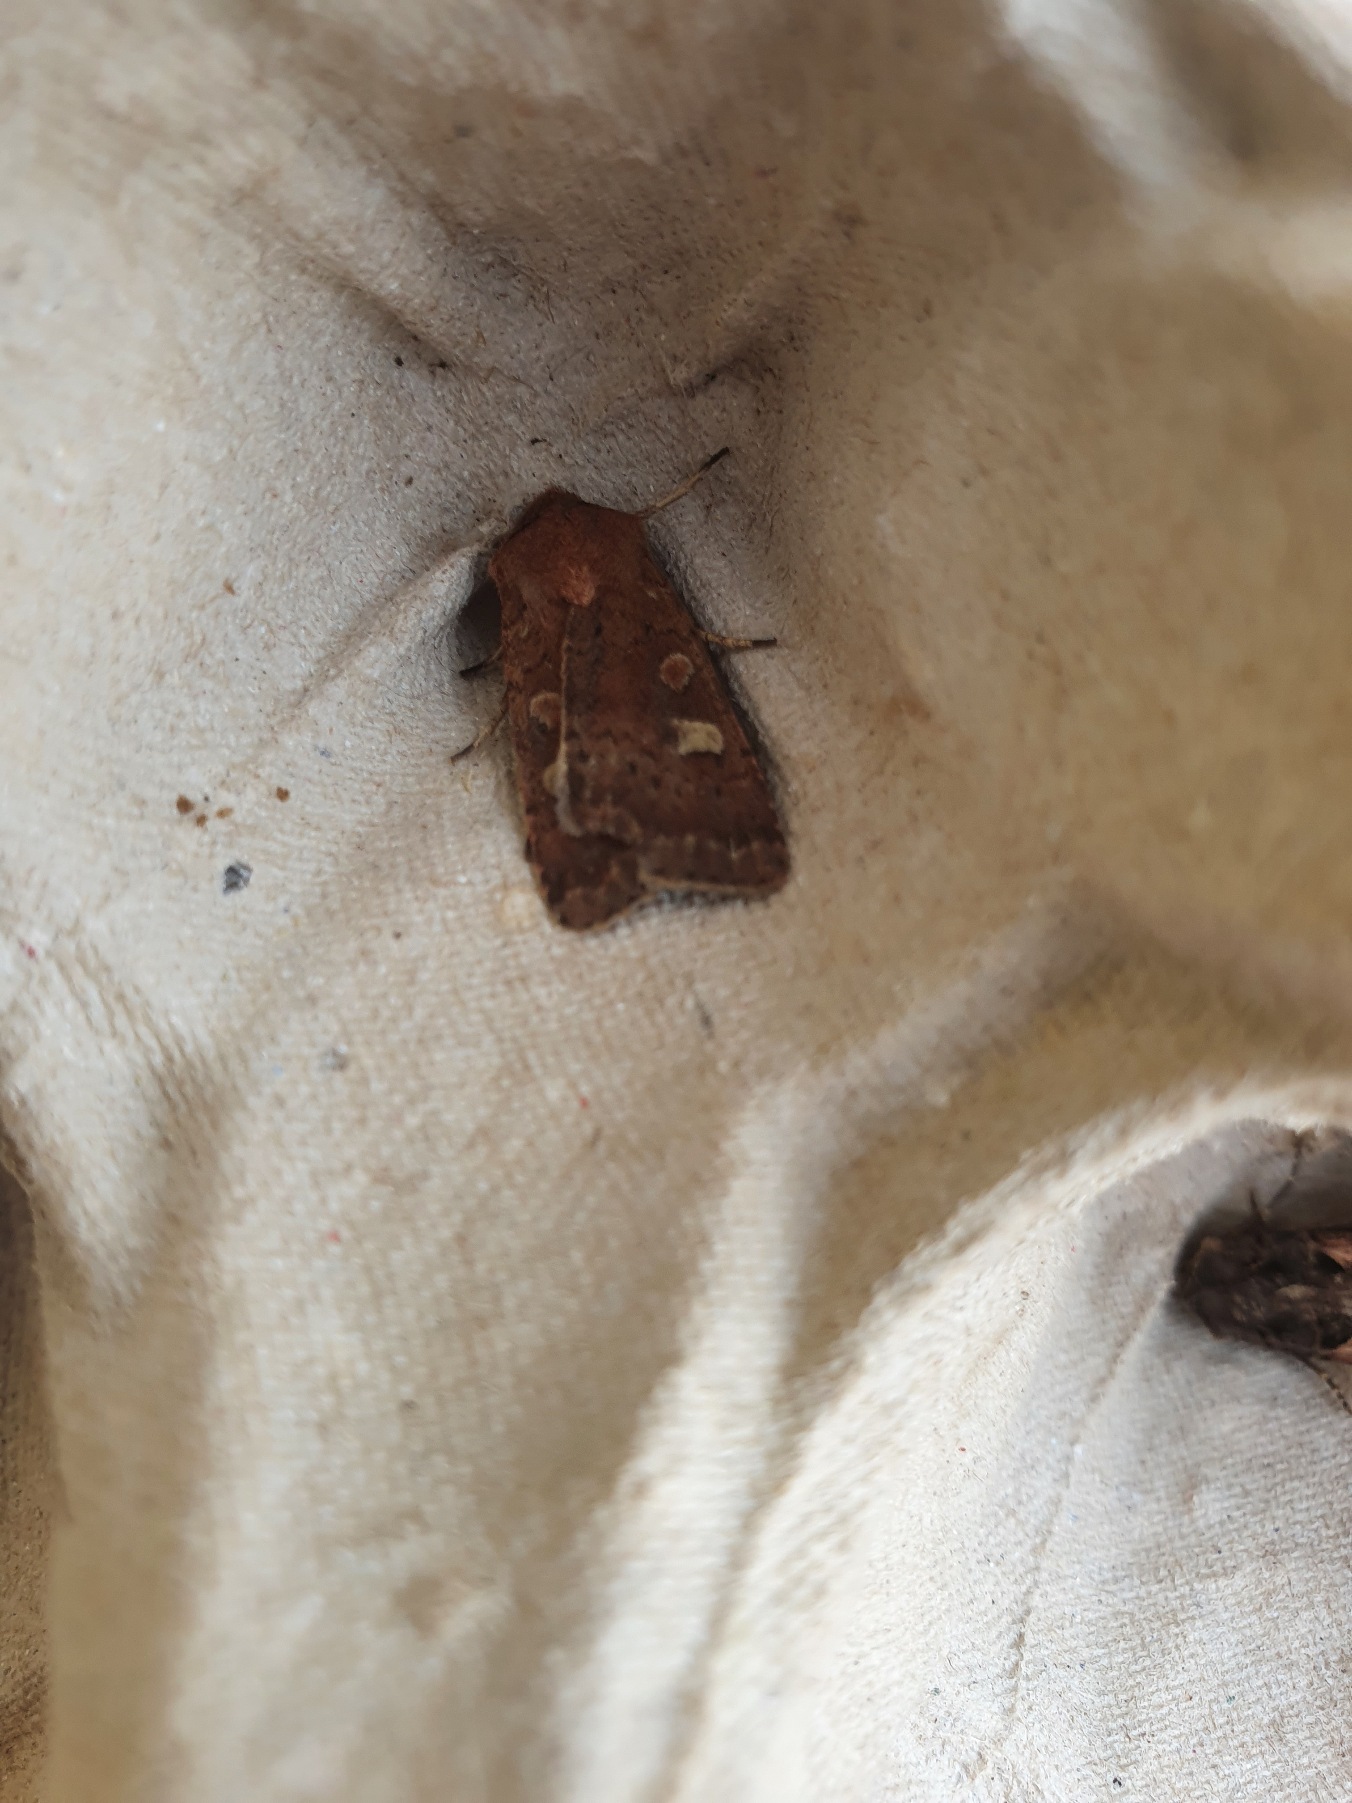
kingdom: Animalia
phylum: Arthropoda
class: Insecta
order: Lepidoptera
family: Noctuidae
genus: Xestia
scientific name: Xestia xanthographa
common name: Gulmærket glansugle
